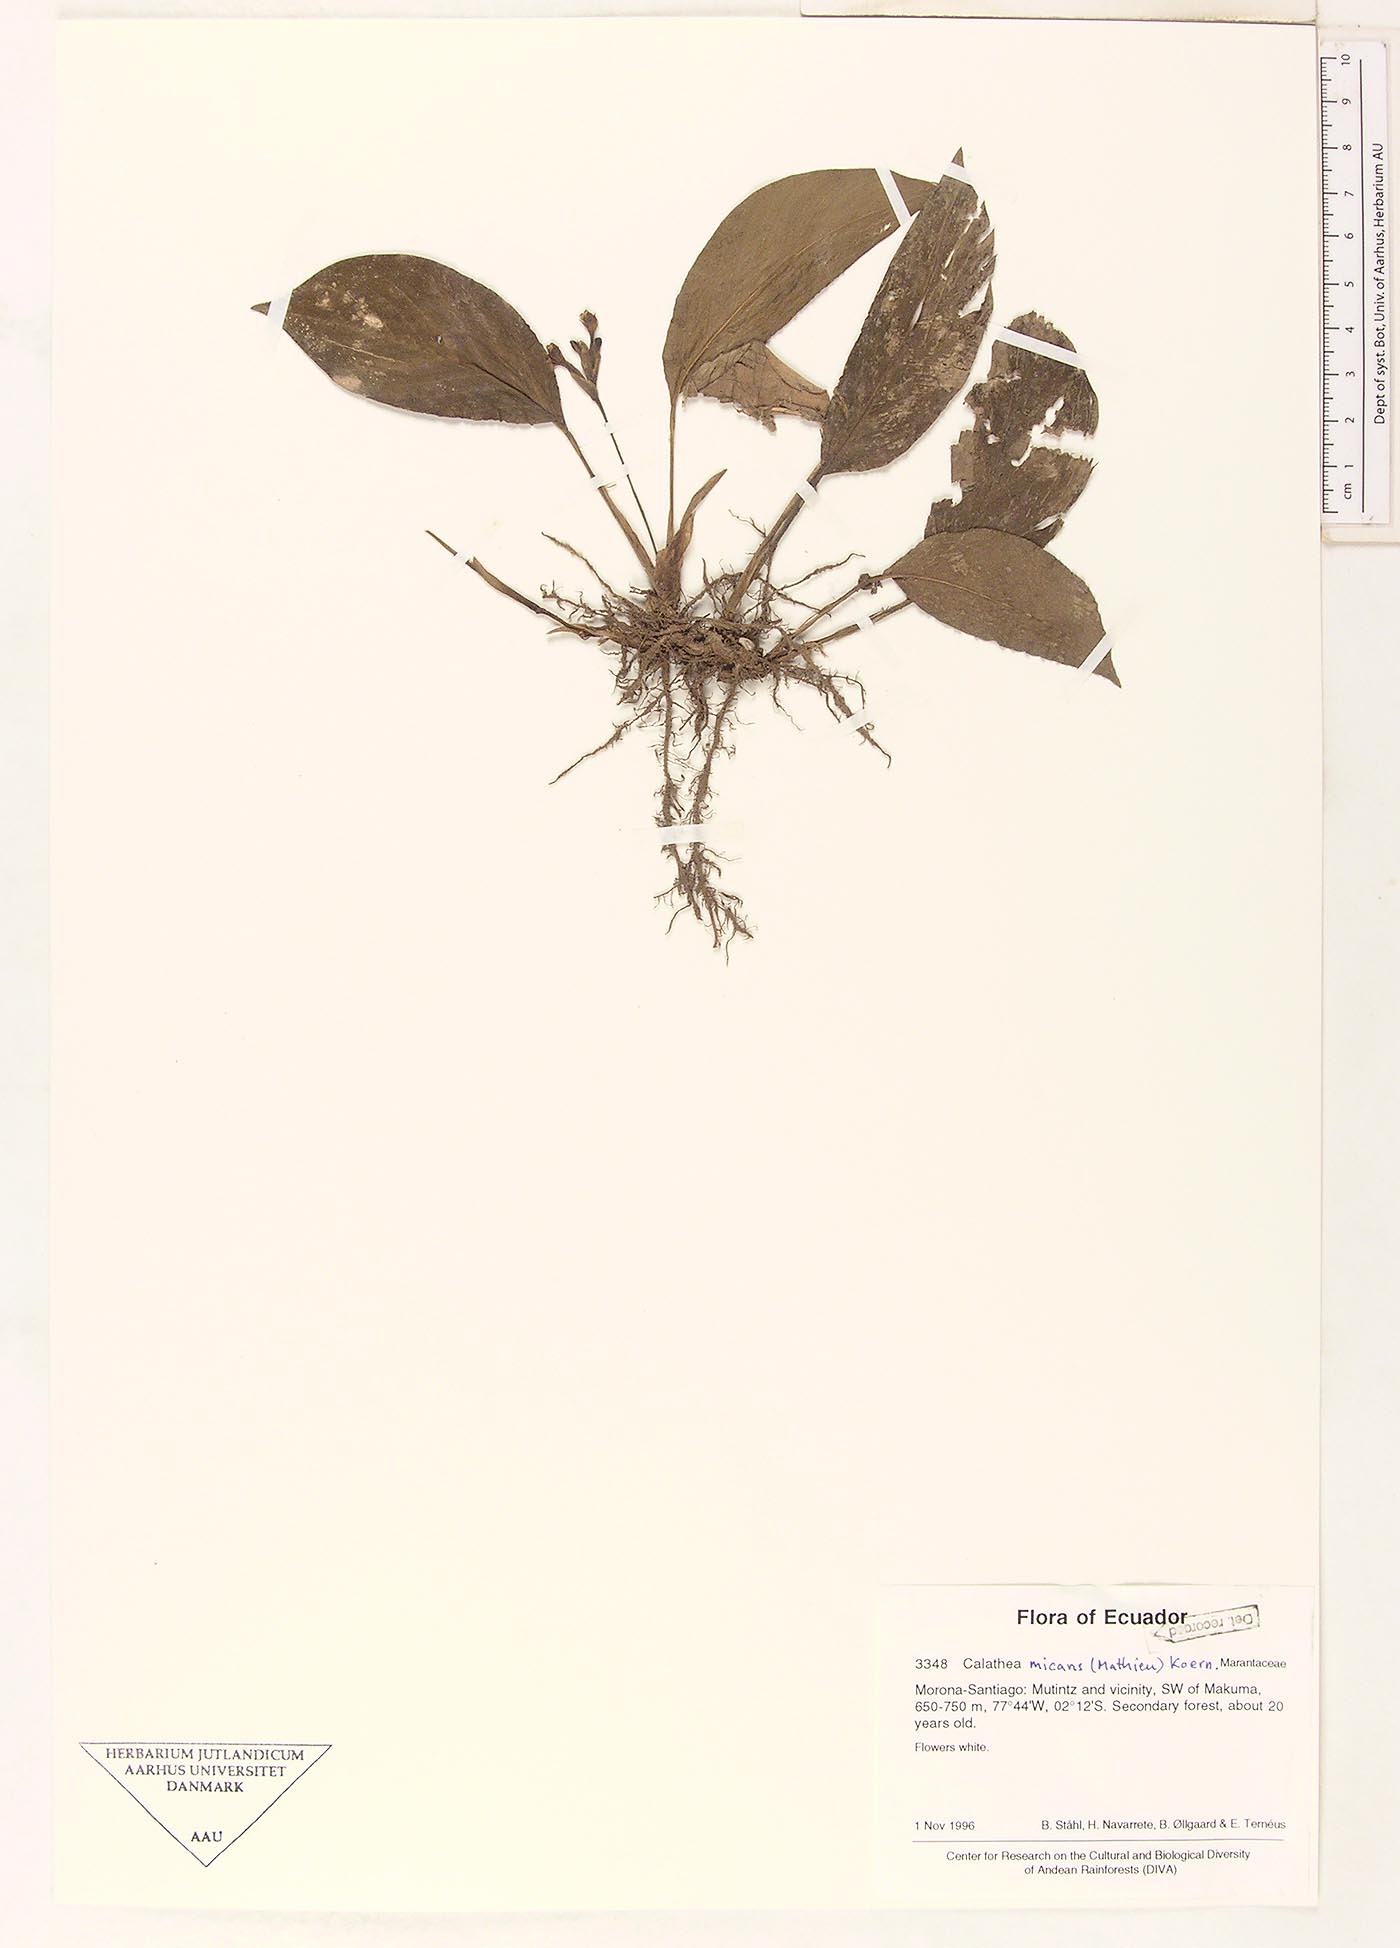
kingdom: Plantae
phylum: Tracheophyta
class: Liliopsida
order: Zingiberales
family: Marantaceae
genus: Goeppertia
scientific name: Goeppertia micans
